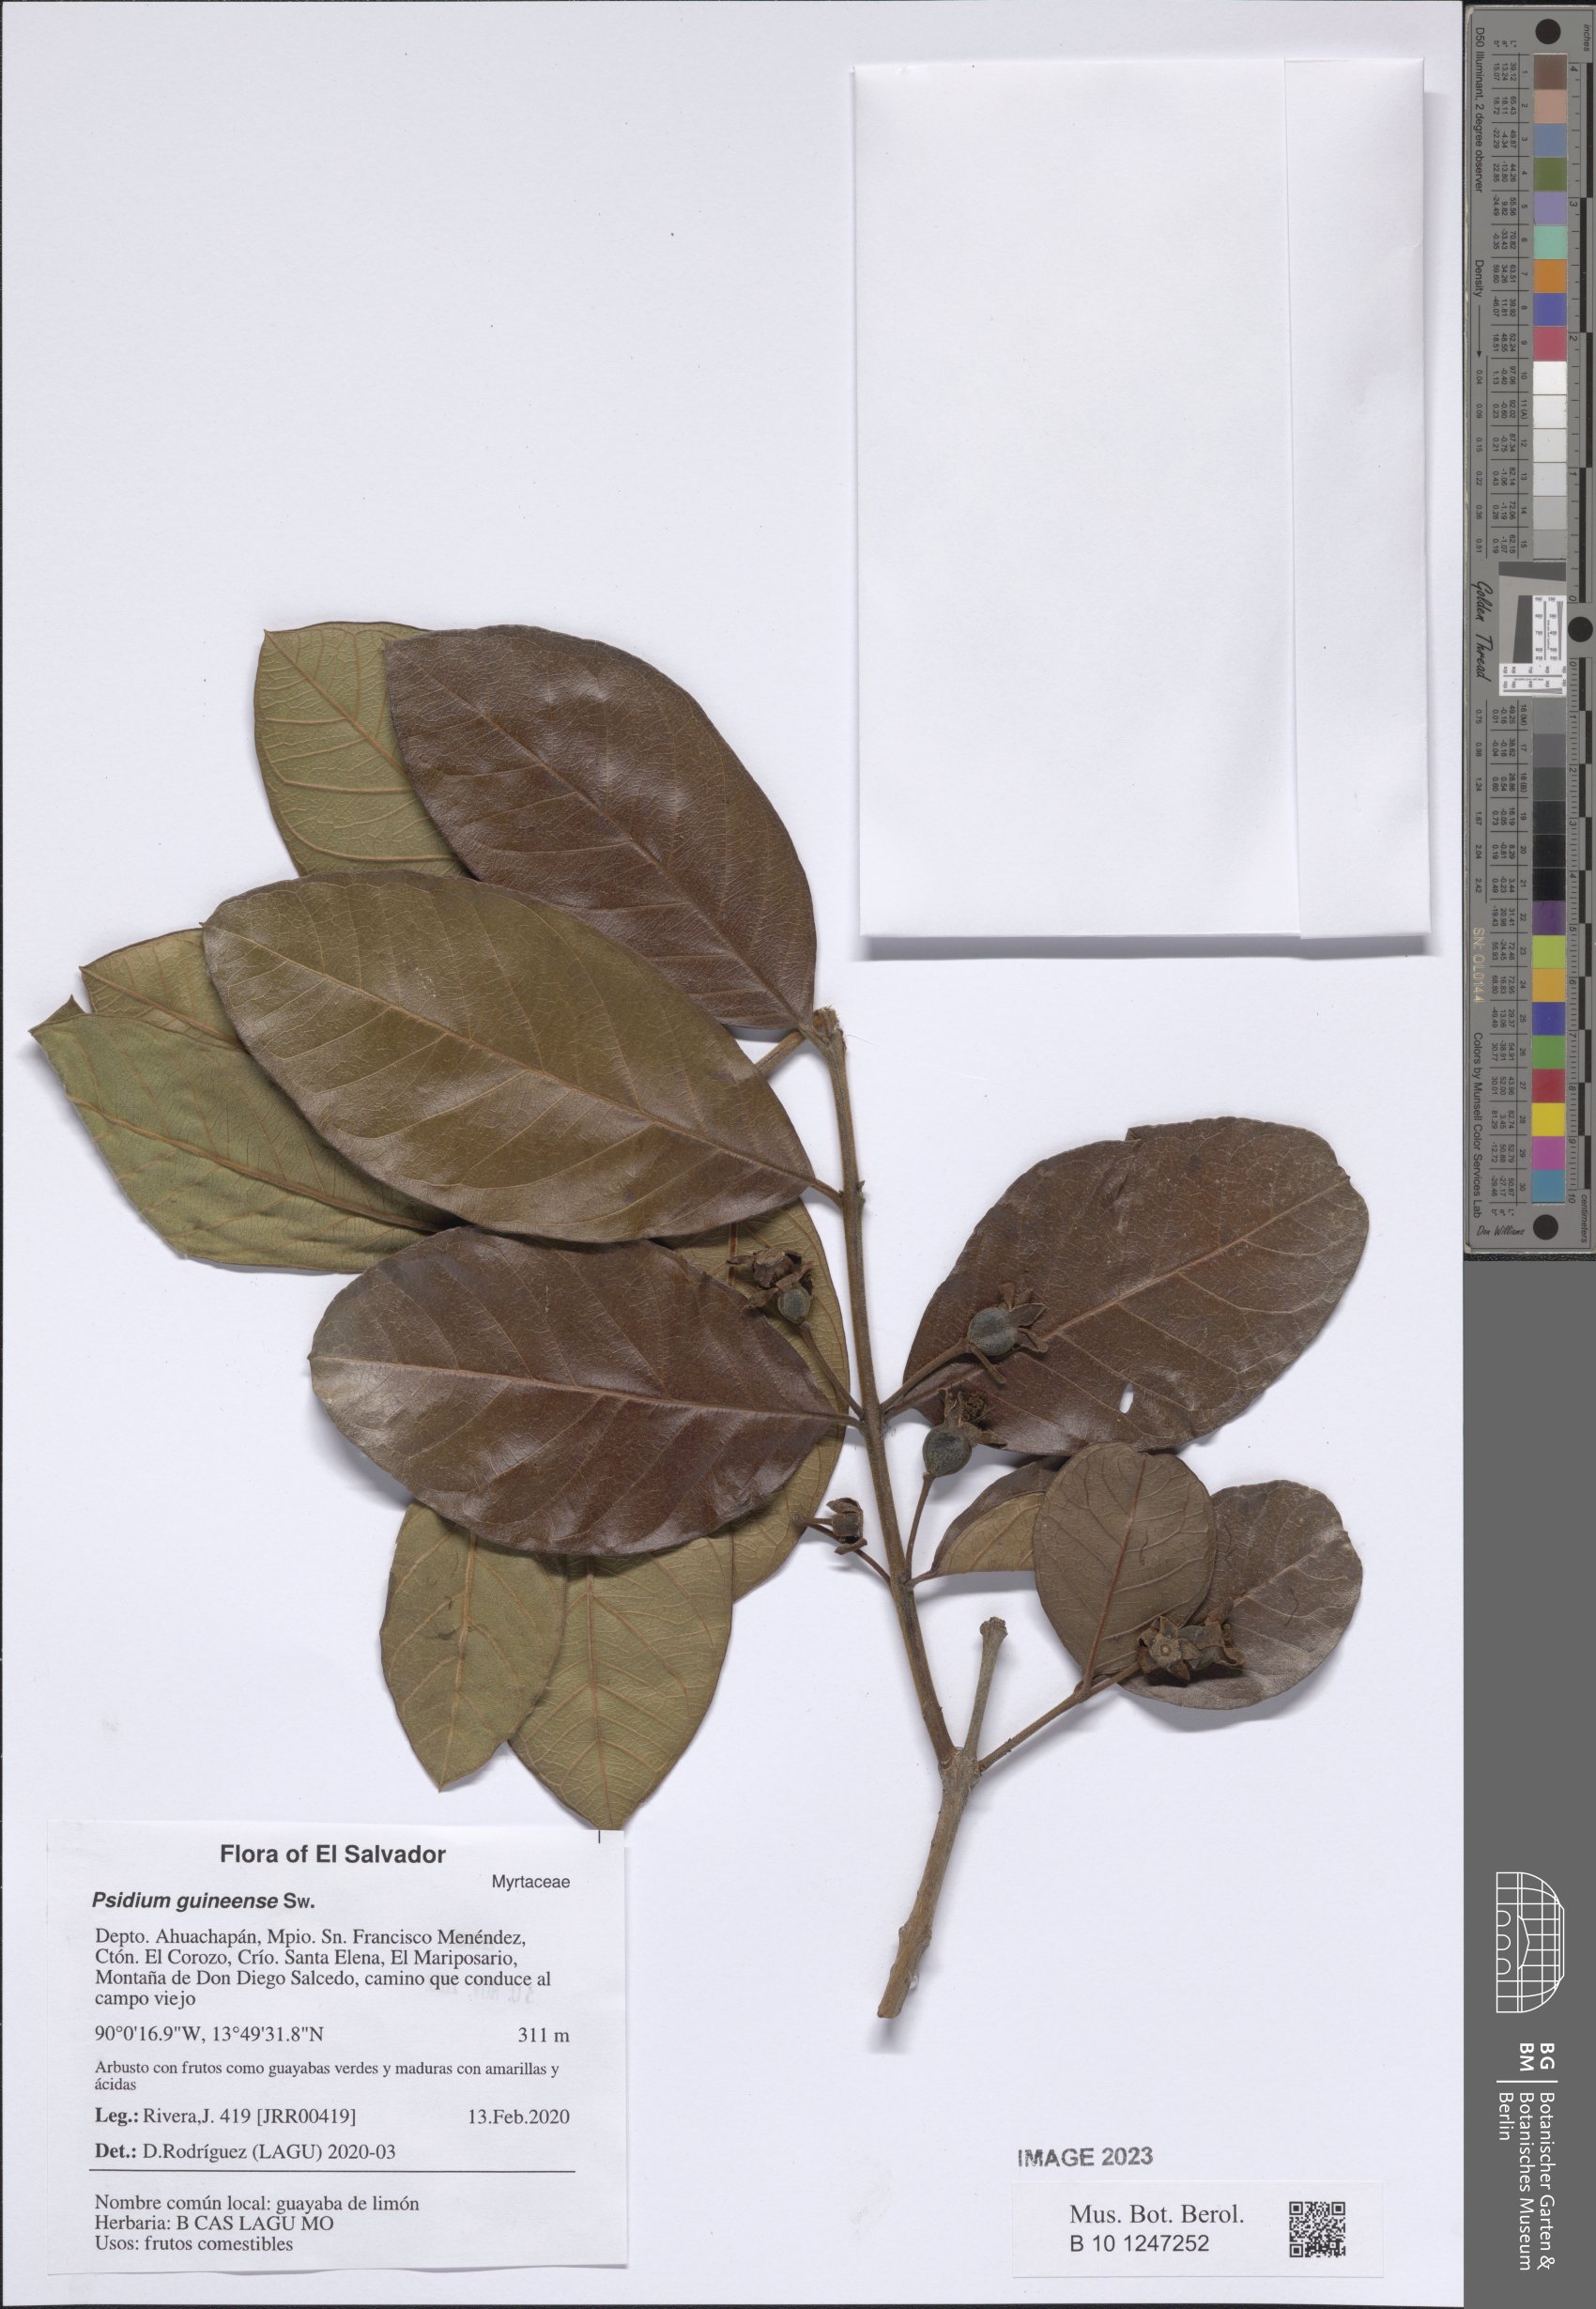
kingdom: Plantae
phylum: Tracheophyta
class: Magnoliopsida
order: Myrtales
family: Myrtaceae
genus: Psidium
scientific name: Psidium guineense
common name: Brazilian guava
